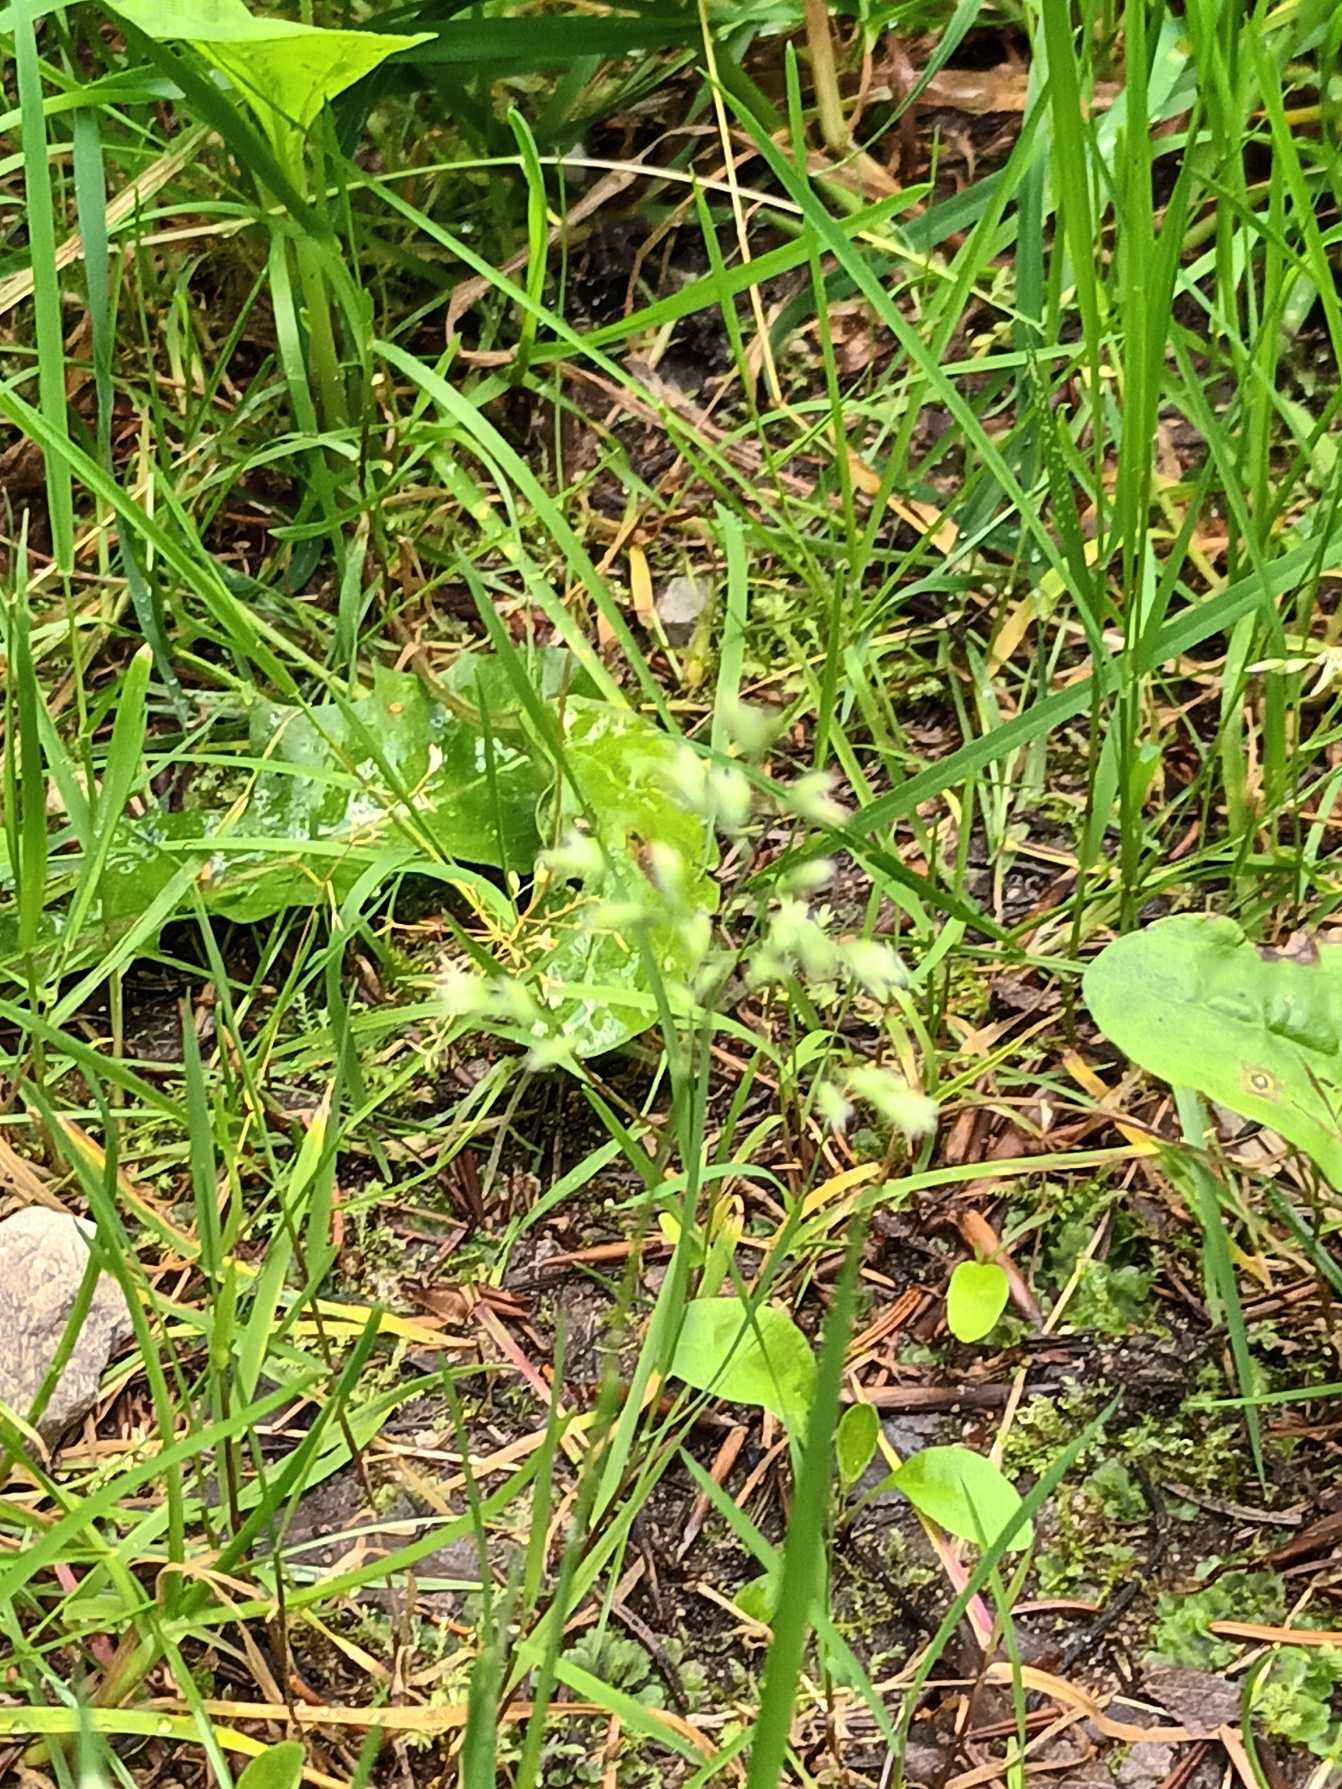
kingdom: Plantae
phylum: Tracheophyta
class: Liliopsida
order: Poales
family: Poaceae
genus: Poa
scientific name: Poa annua
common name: Enårig rapgræs
